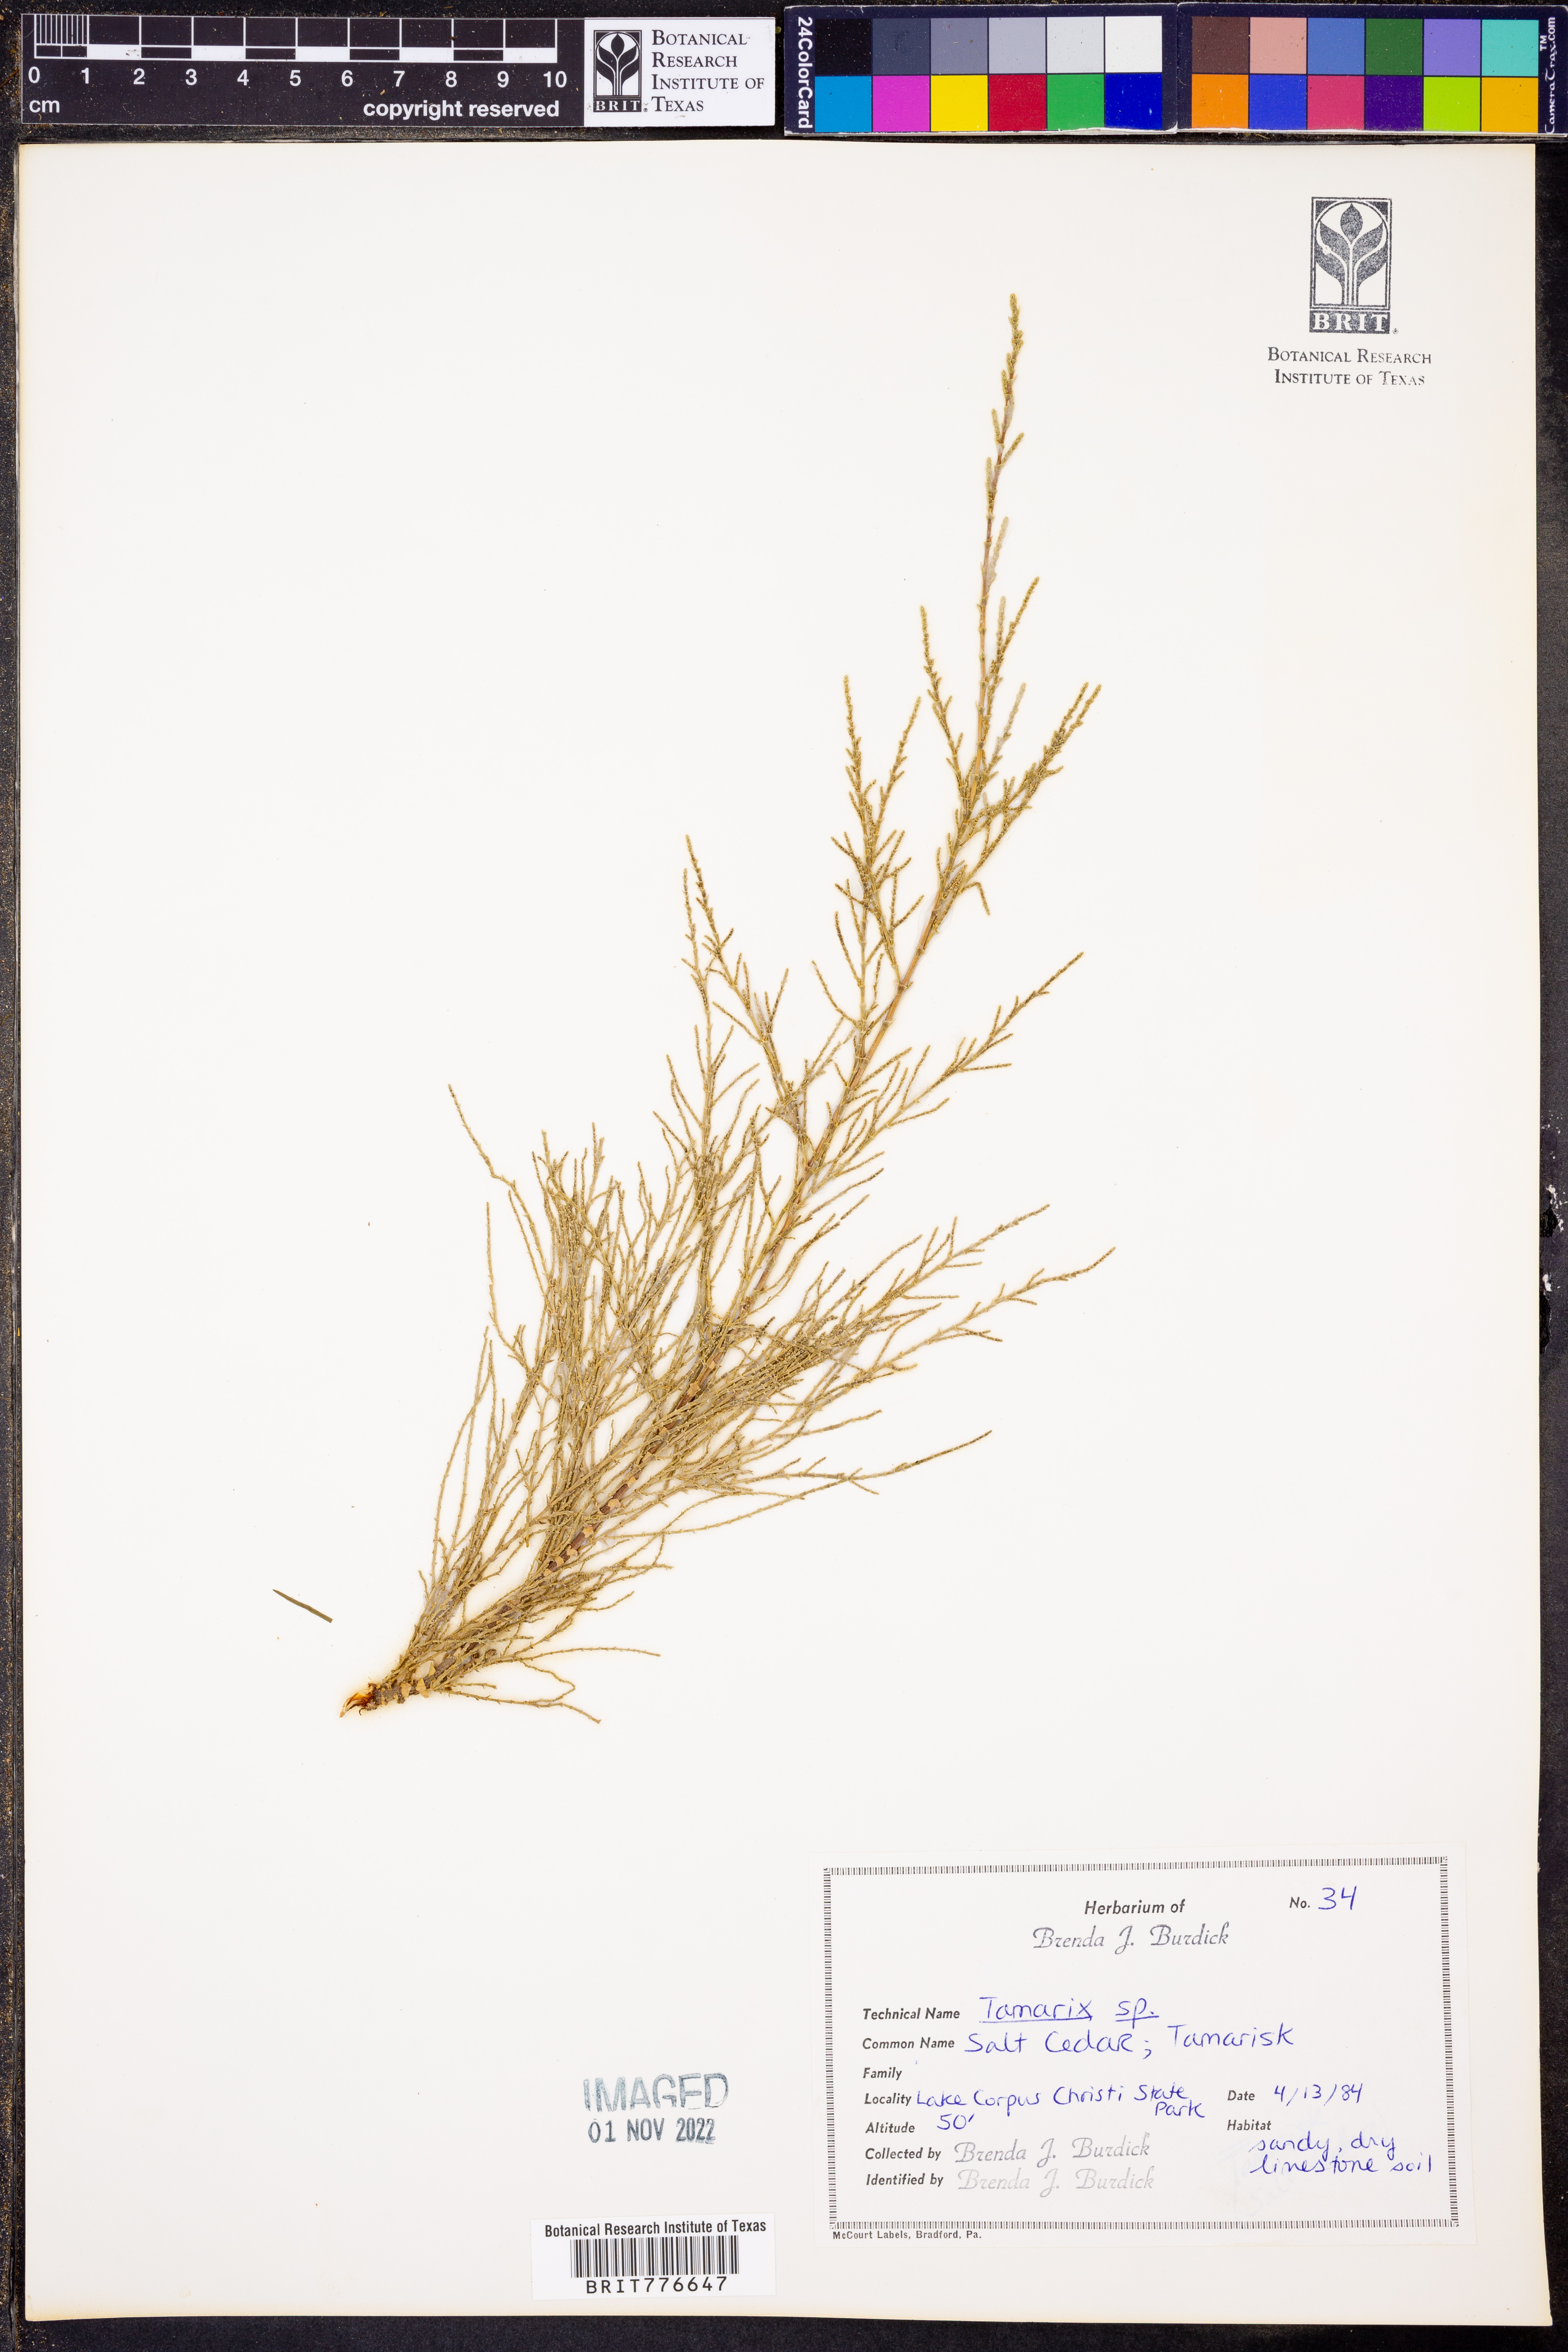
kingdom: Plantae
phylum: Tracheophyta
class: Magnoliopsida
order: Caryophyllales
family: Tamaricaceae
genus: Tamarix
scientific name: Tamarix
